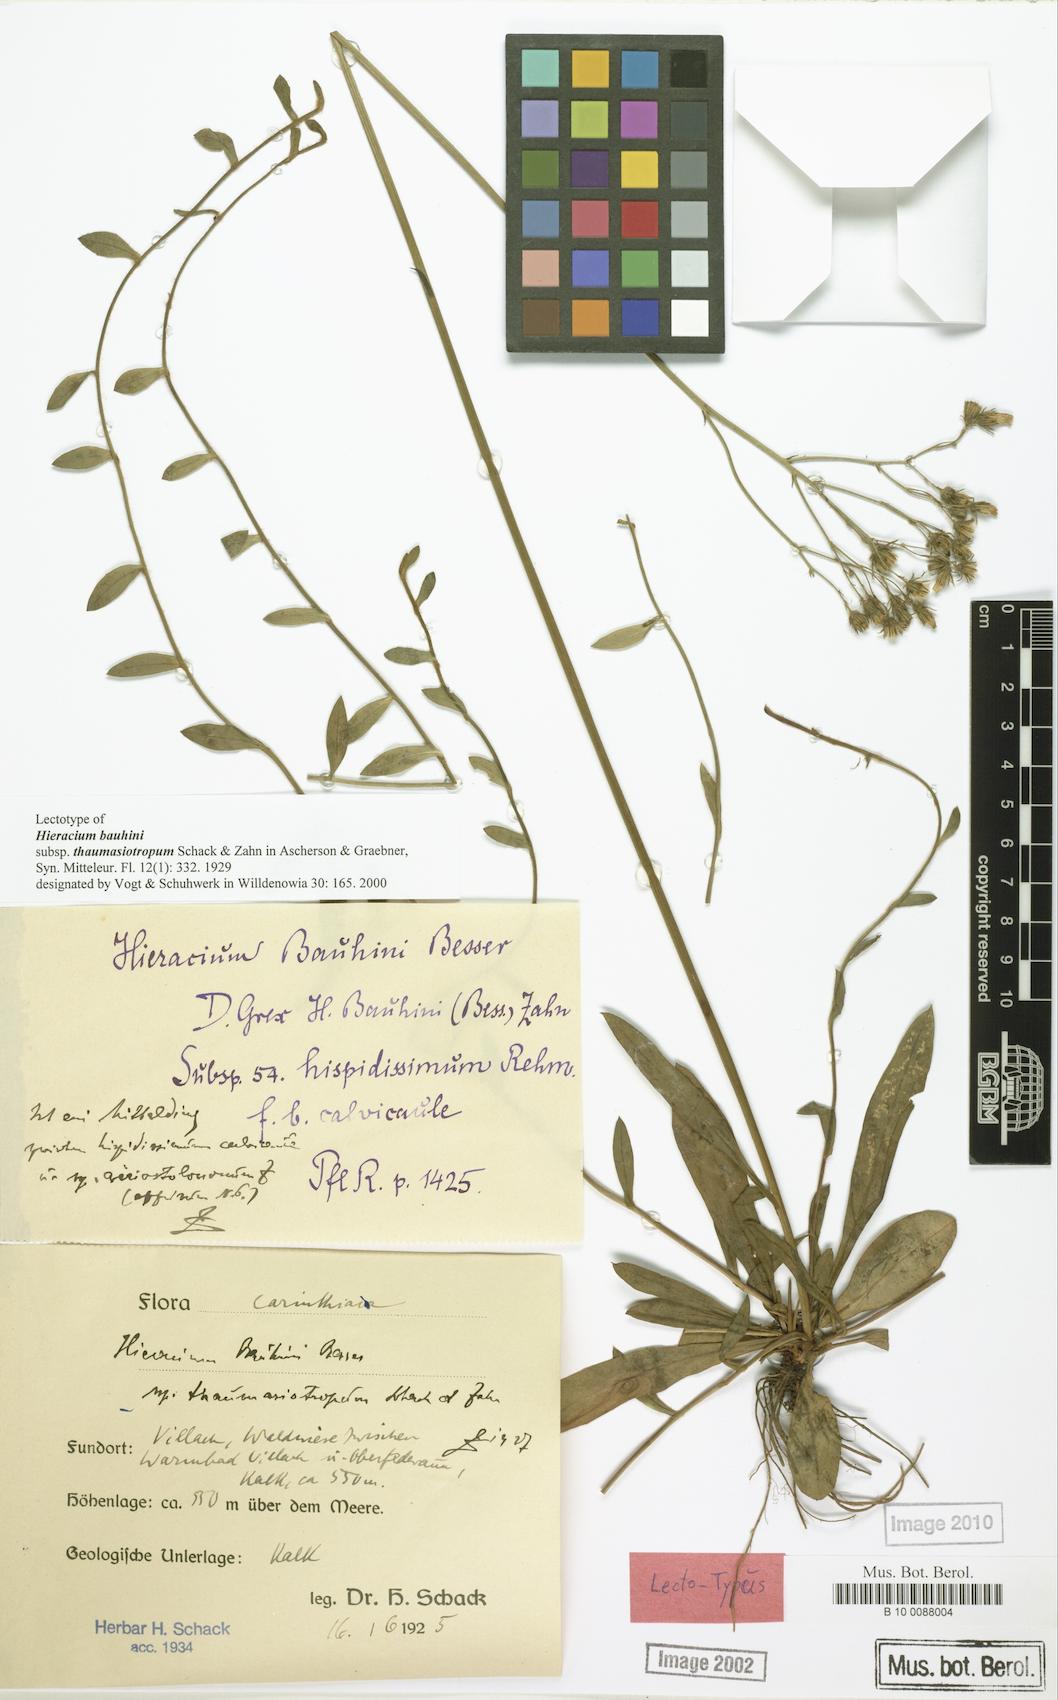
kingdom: Plantae
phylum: Tracheophyta
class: Magnoliopsida
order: Asterales
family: Asteraceae
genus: Hieracium
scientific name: Hieracium bauhinii
